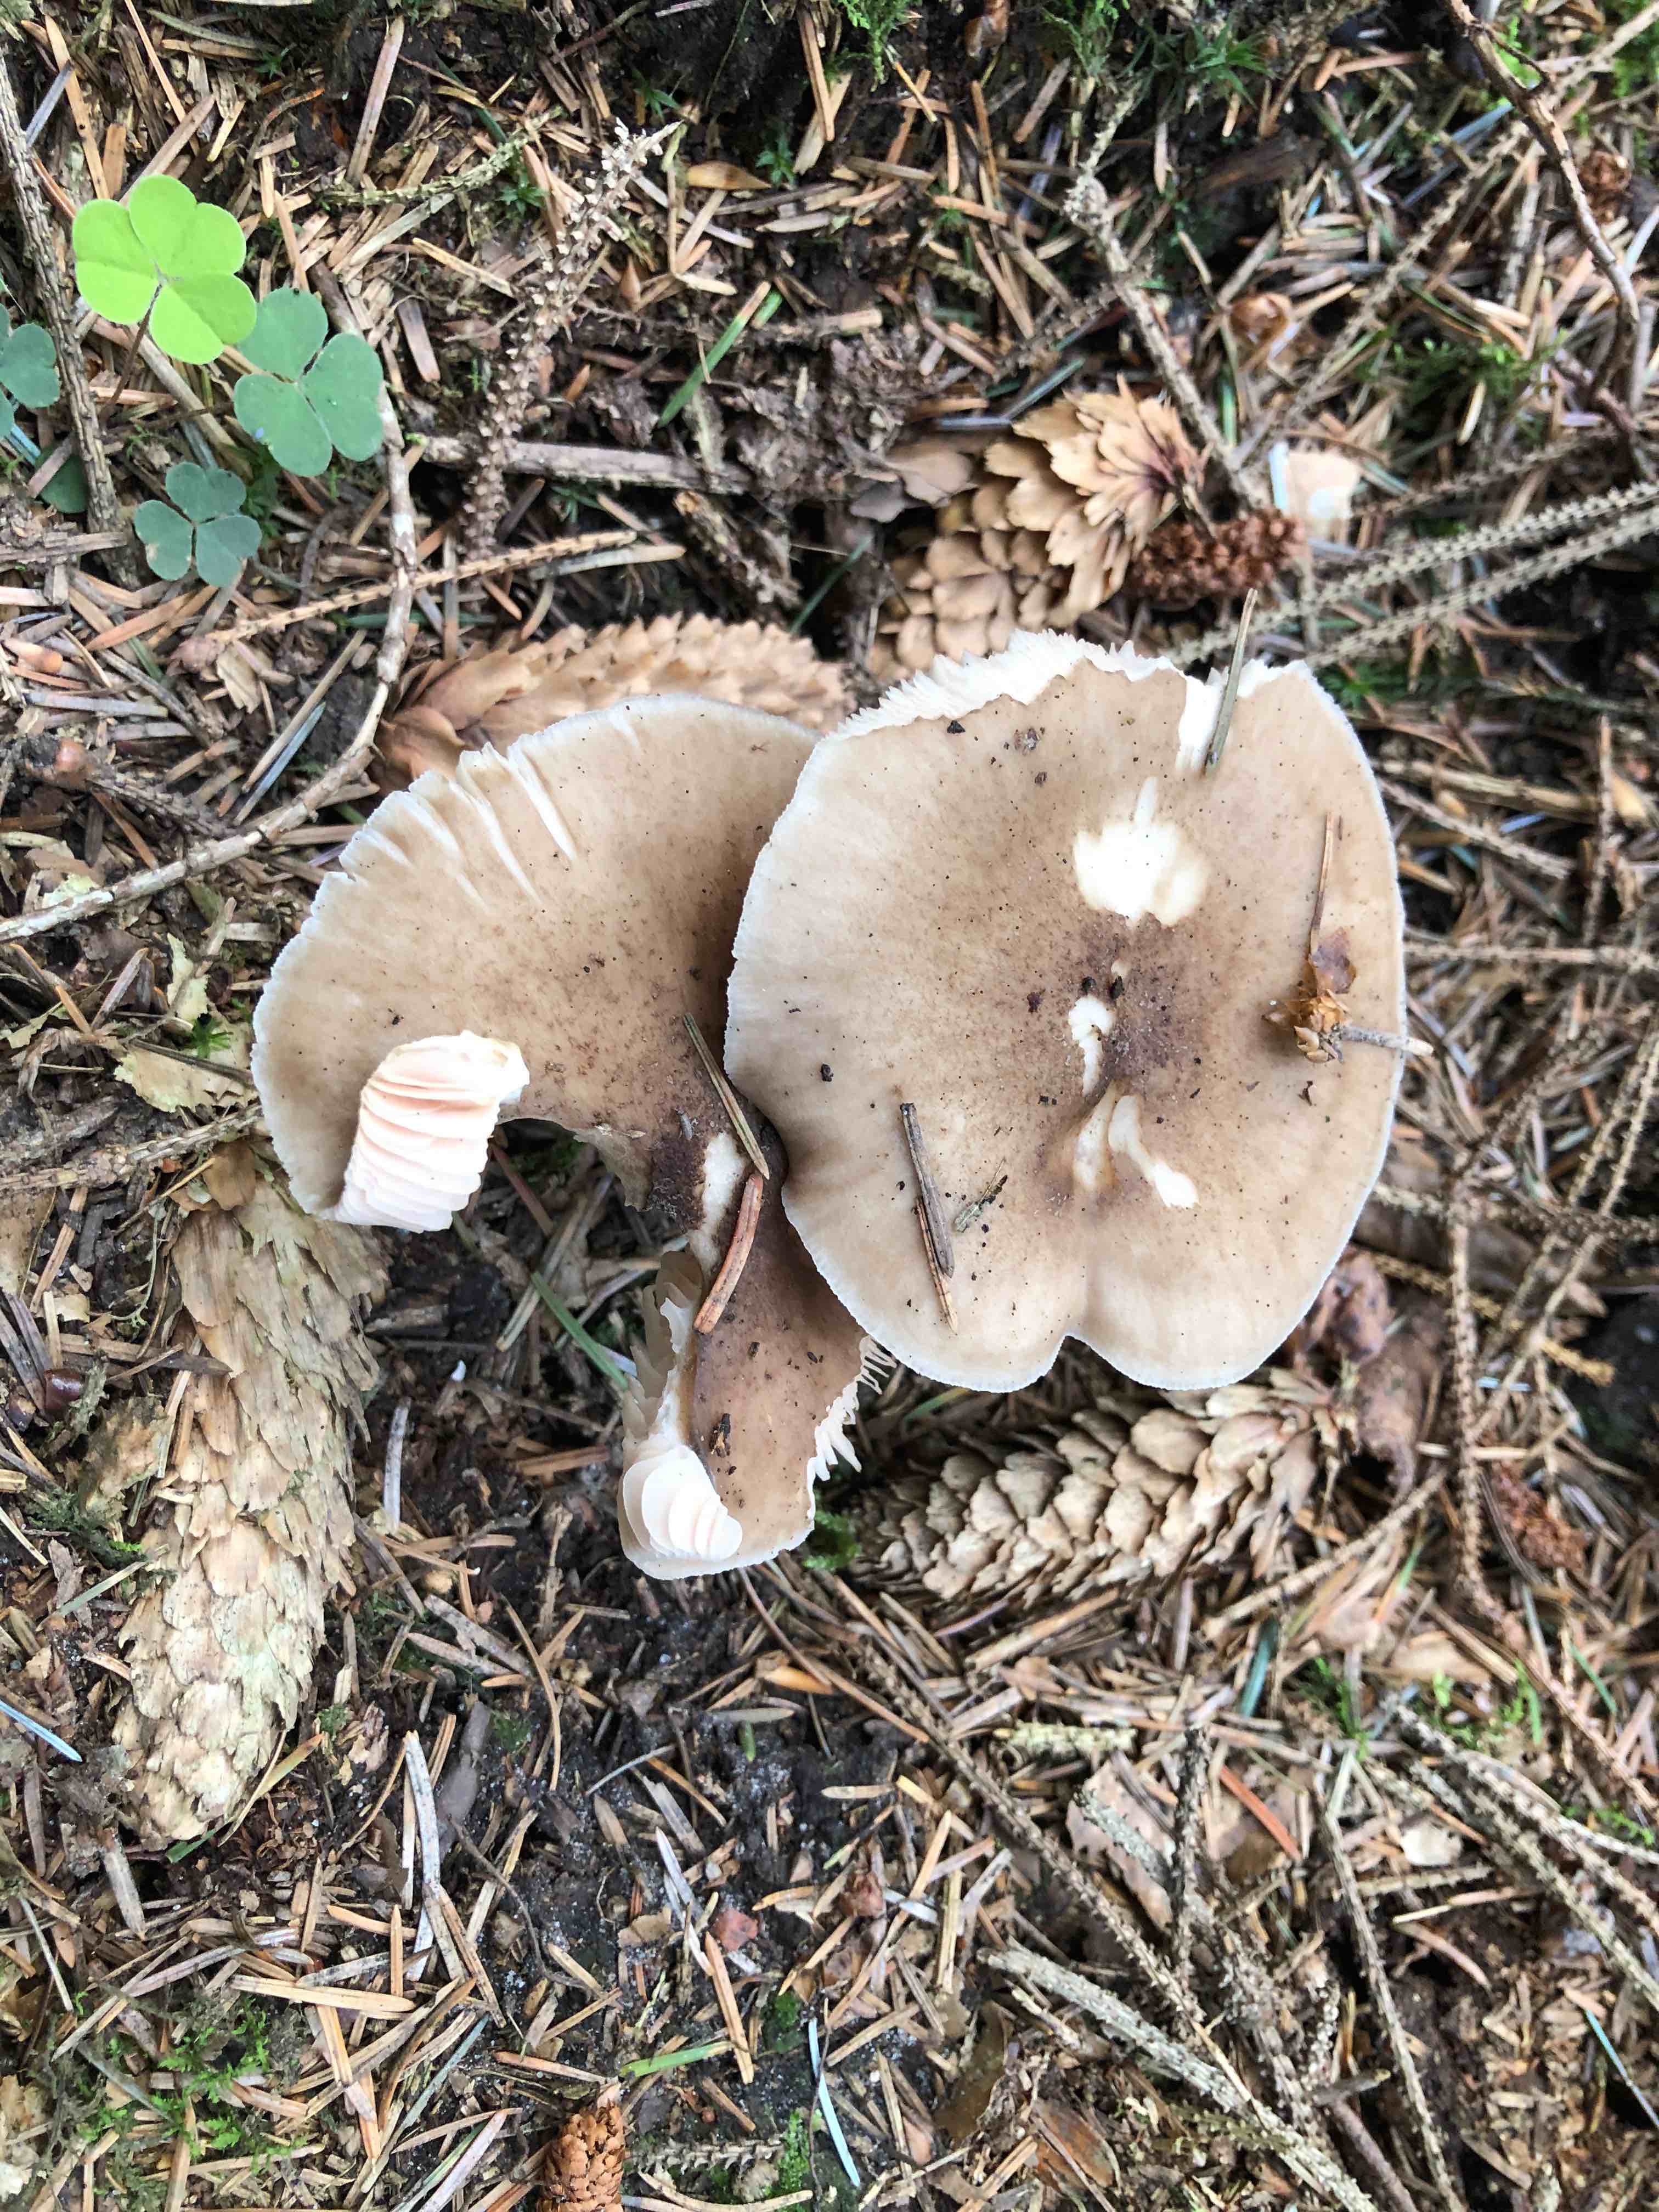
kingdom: Fungi
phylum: Basidiomycota
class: Agaricomycetes
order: Agaricales
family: Pluteaceae
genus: Pluteus
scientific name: Pluteus cervinus
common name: sodfarvet skærmhat
